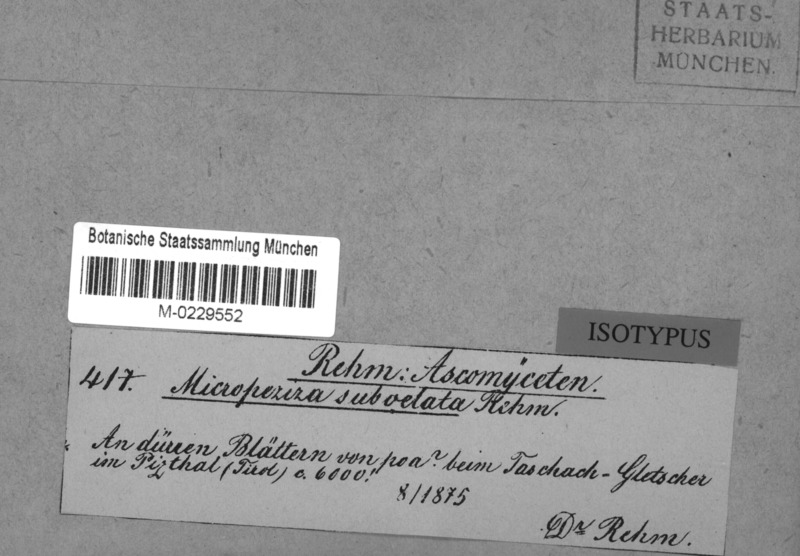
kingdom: Fungi
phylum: Ascomycota
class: Leotiomycetes
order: Helotiales
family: Dermateaceae
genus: Hysteropezizella
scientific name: Hysteropezizella subvelata
